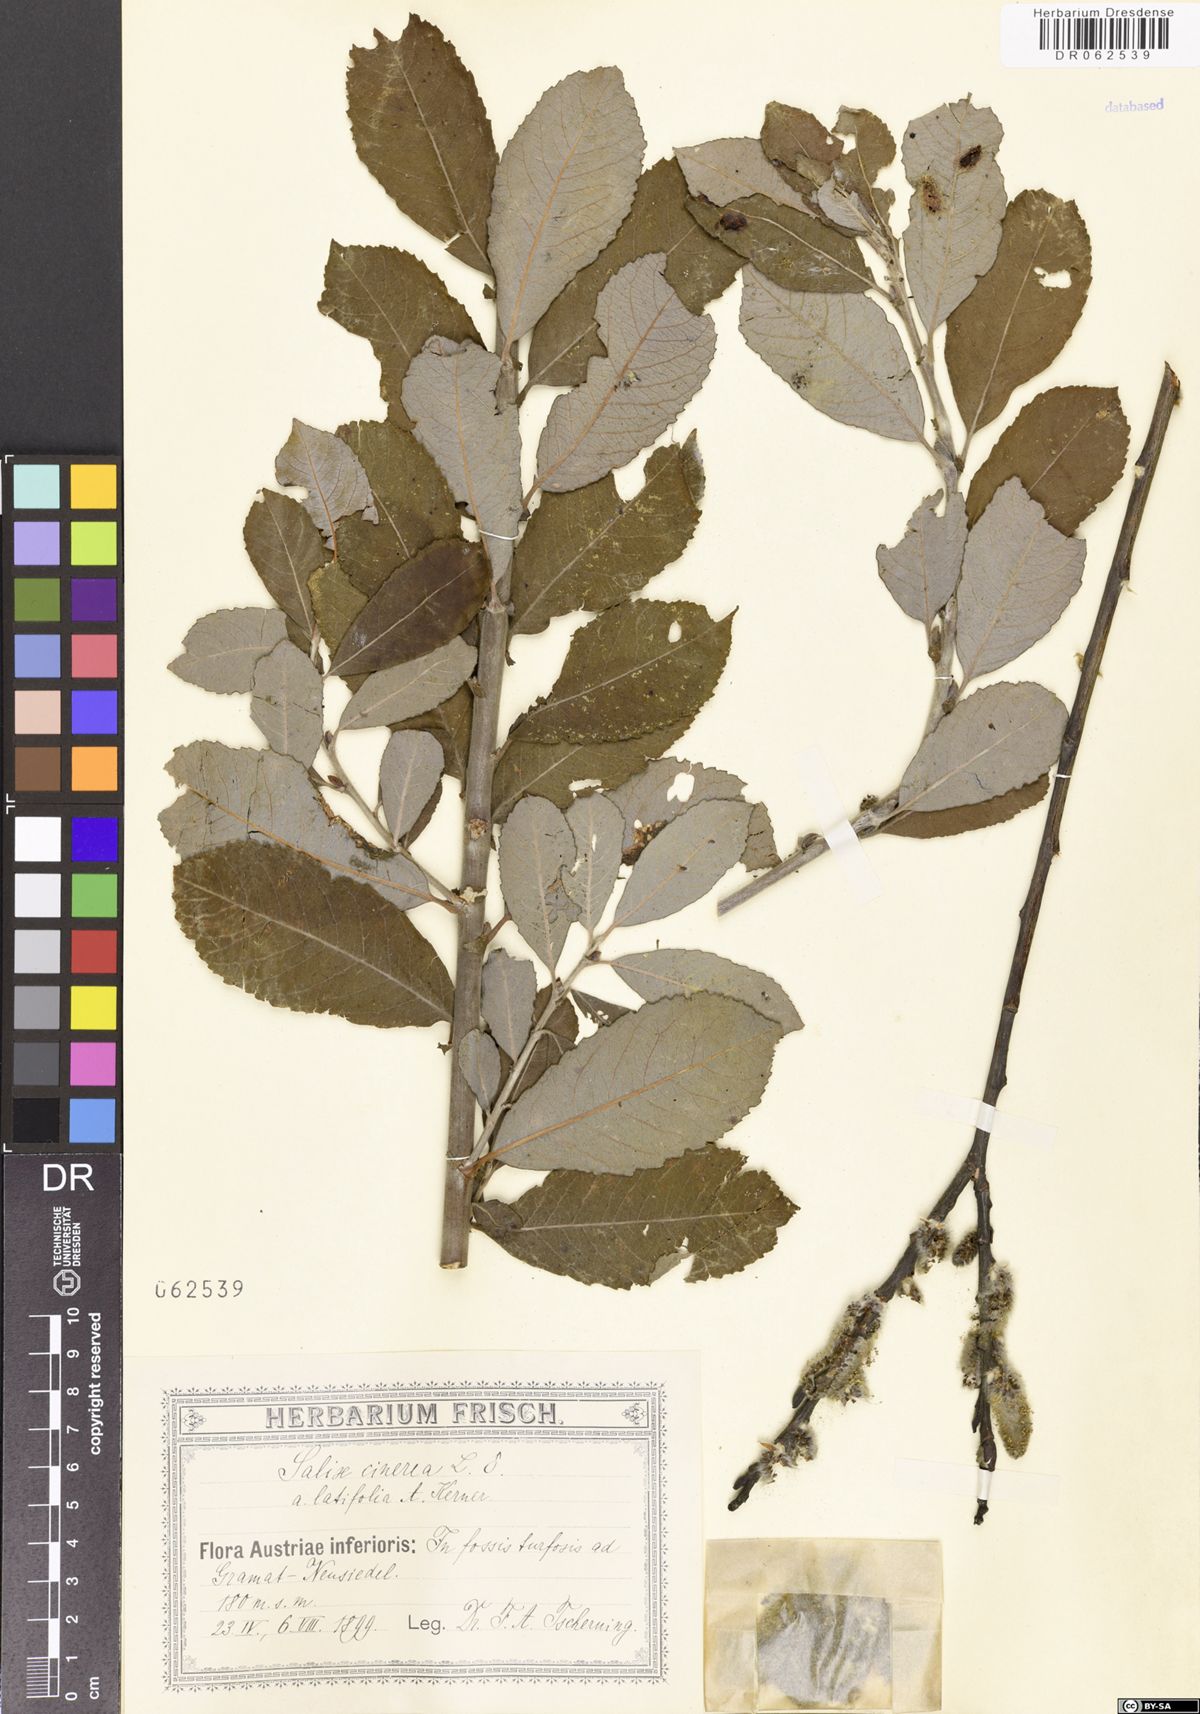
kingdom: Plantae
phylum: Tracheophyta
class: Magnoliopsida
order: Malpighiales
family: Salicaceae
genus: Salix
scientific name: Salix cinerea
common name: Common sallow
